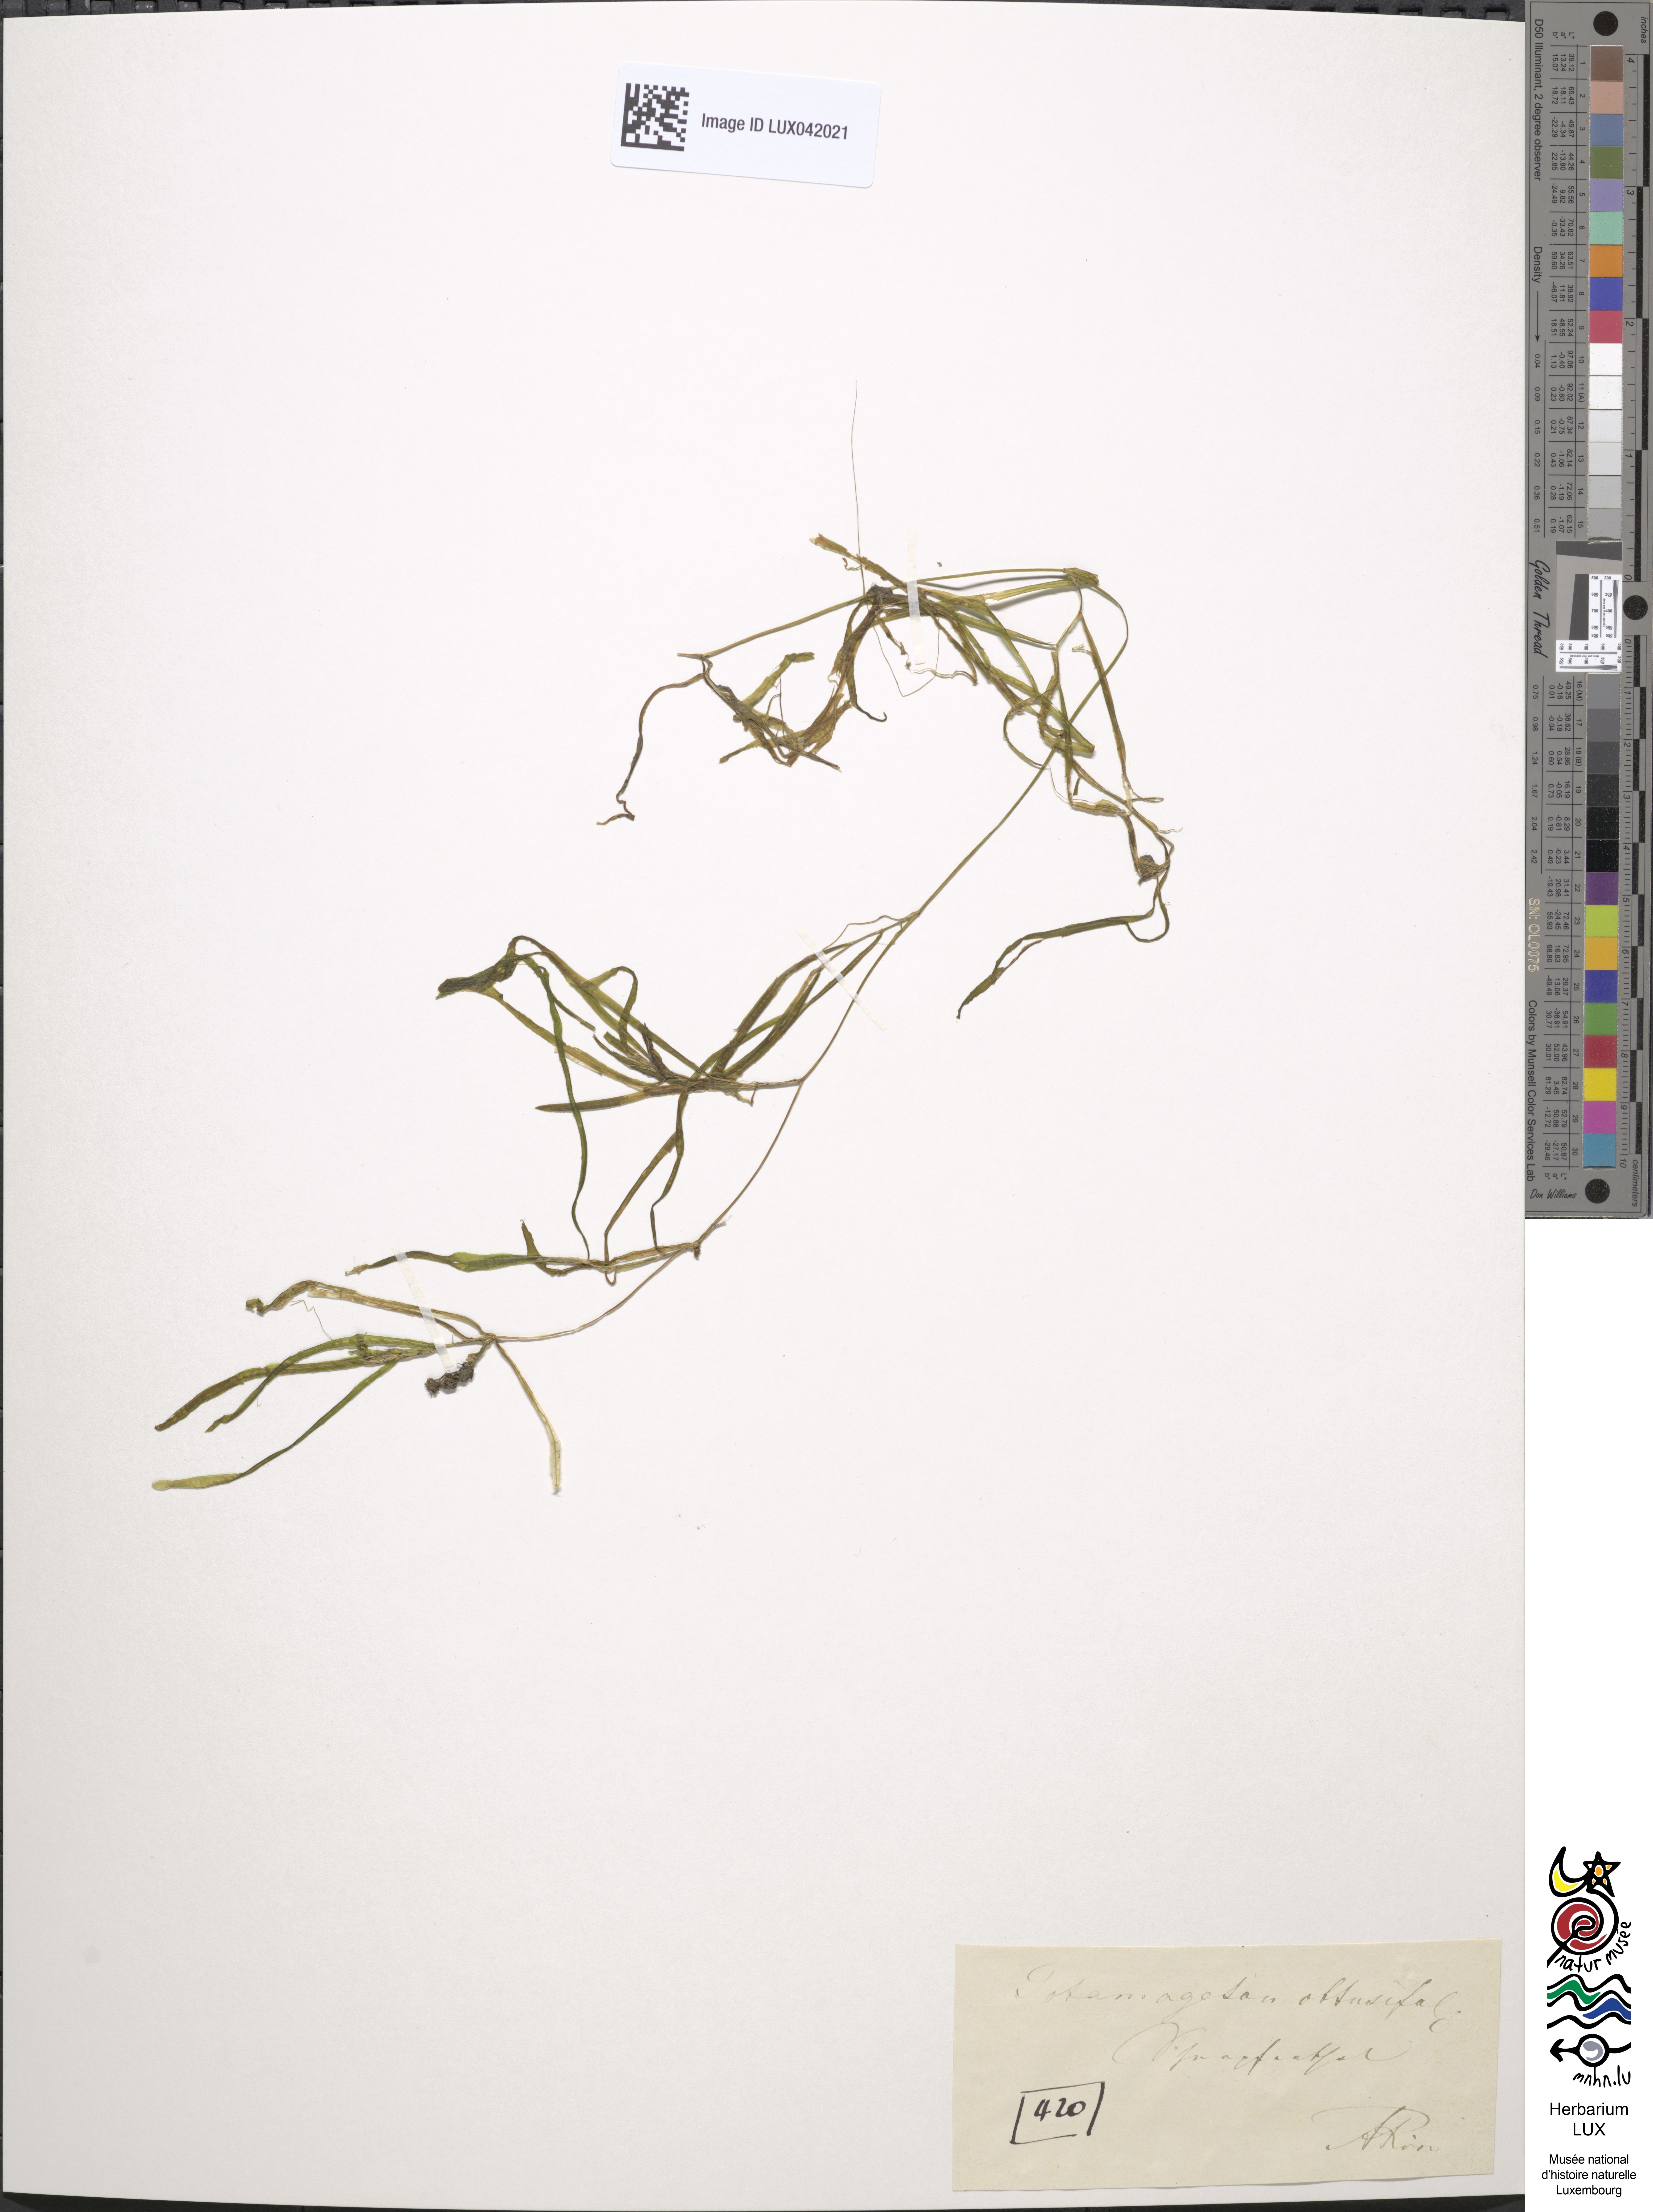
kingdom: Plantae
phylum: Tracheophyta
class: Liliopsida
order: Alismatales
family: Potamogetonaceae
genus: Potamogeton
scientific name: Potamogeton obtusifolius
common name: Blunt-leaved pondweed
